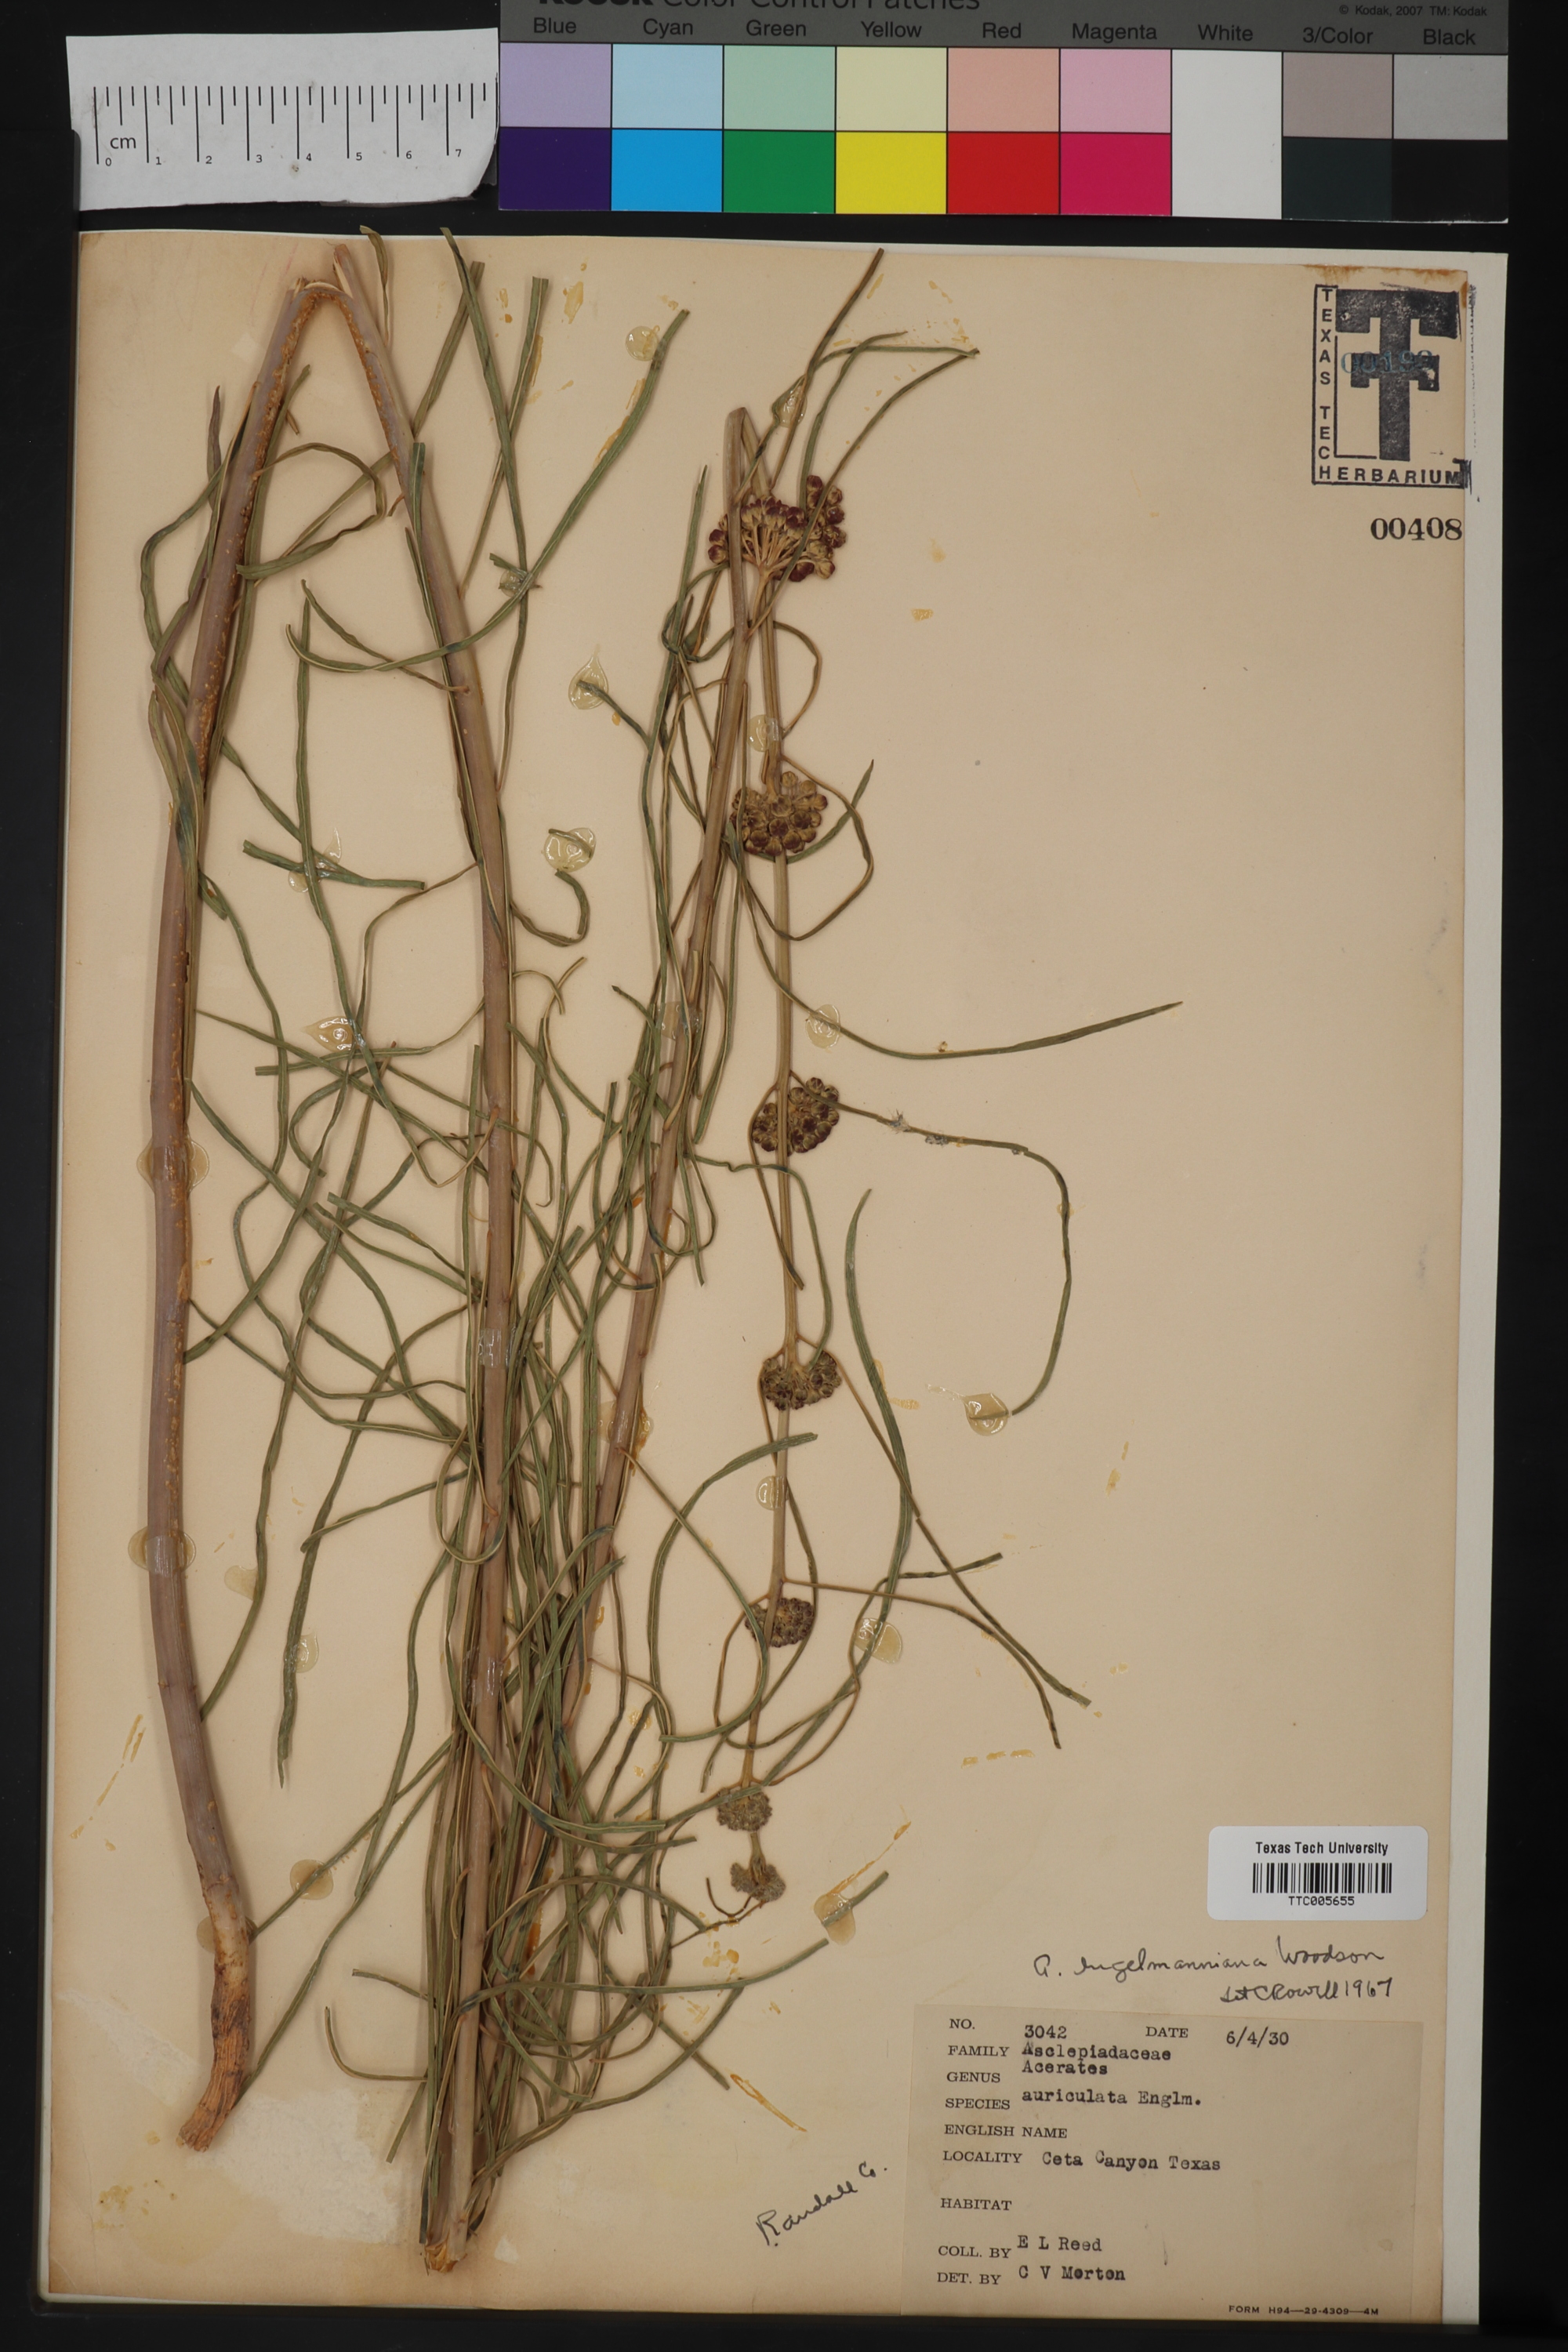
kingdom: Plantae
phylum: Tracheophyta
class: Magnoliopsida
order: Gentianales
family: Apocynaceae
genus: Asclepias
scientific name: Asclepias Acerates engelmanniana
